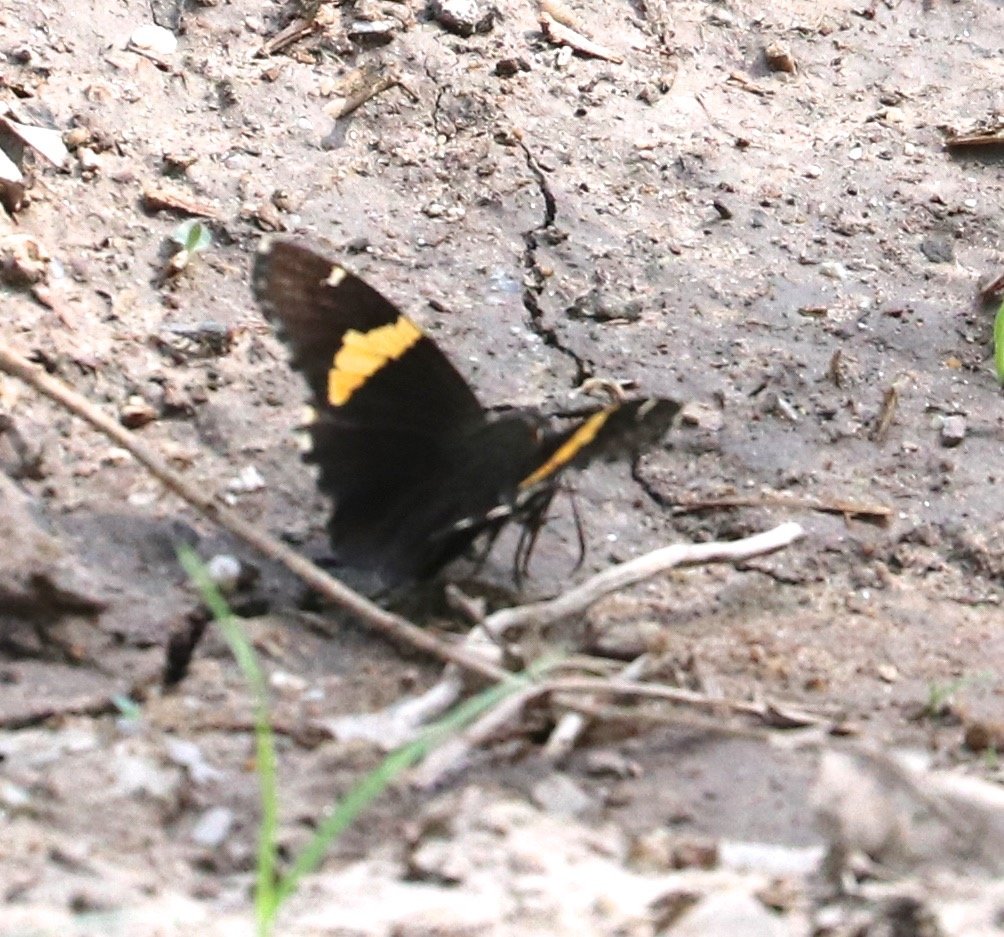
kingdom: Animalia
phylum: Arthropoda
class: Insecta
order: Lepidoptera
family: Hesperiidae
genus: Autochton
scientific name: Autochton cellus
